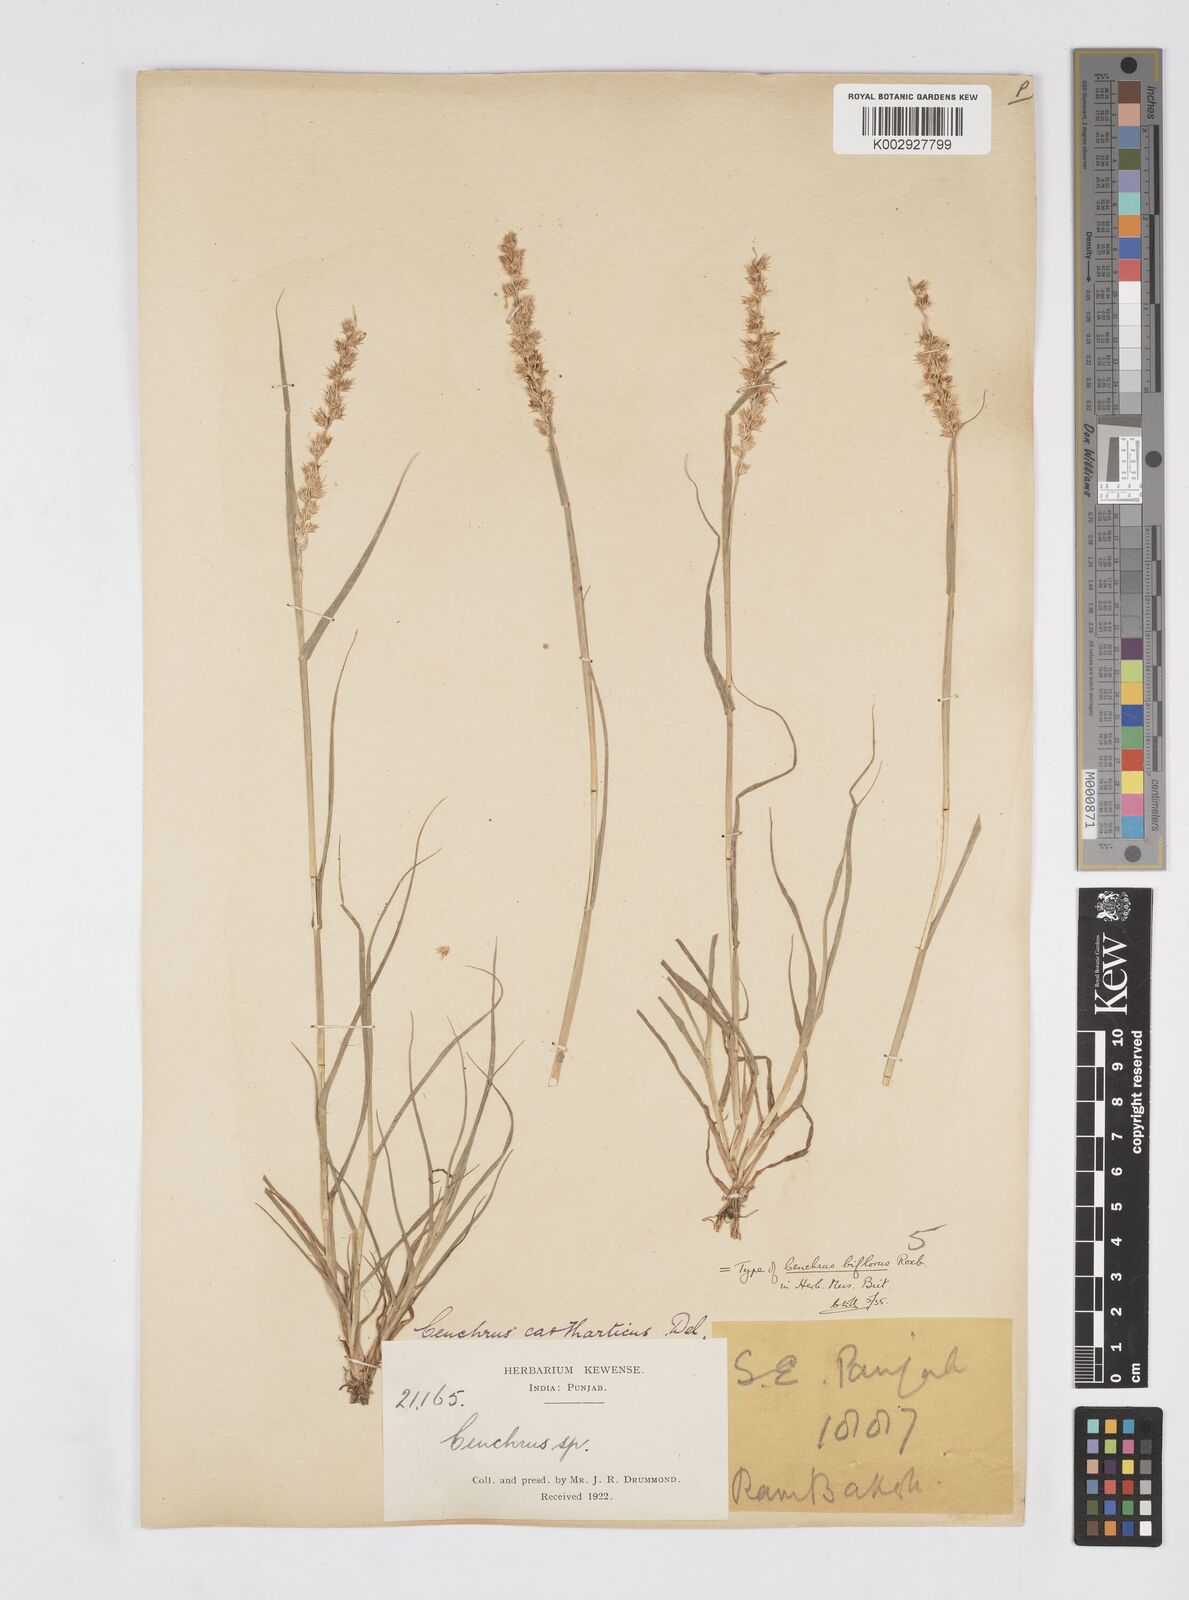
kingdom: Plantae
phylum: Tracheophyta
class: Liliopsida
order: Poales
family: Poaceae
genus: Cenchrus
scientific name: Cenchrus biflorus
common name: Indian sandbur
